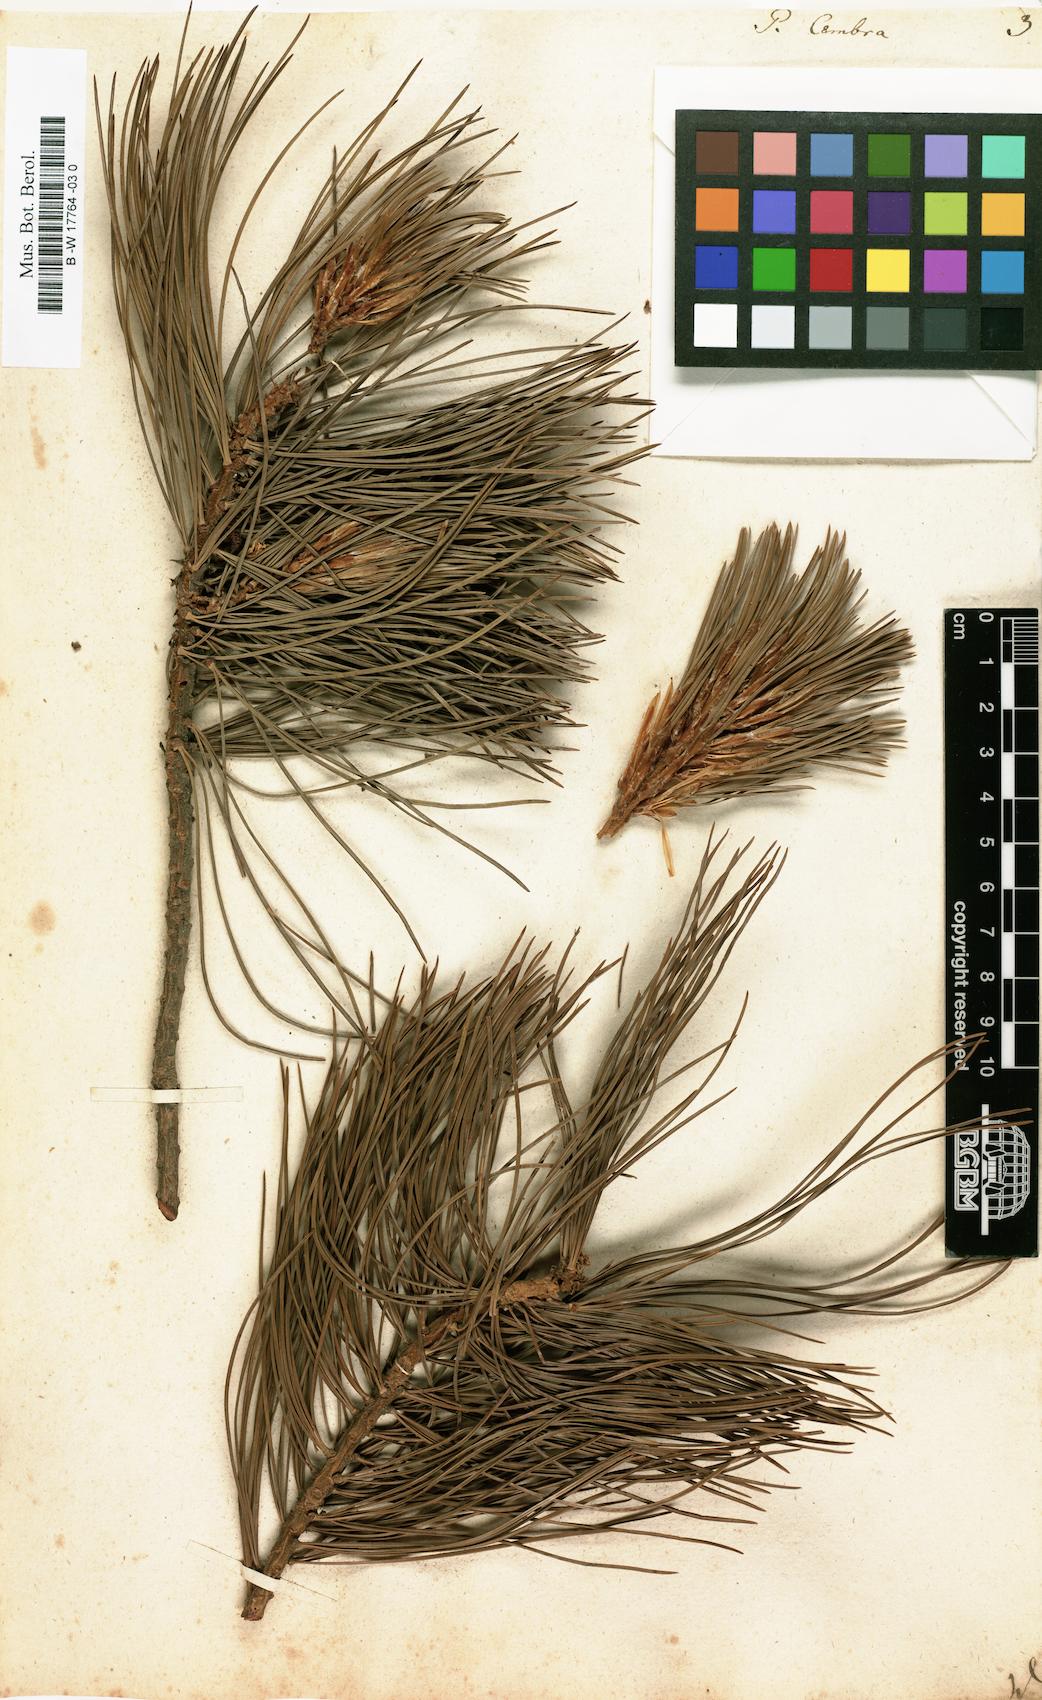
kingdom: Plantae
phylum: Tracheophyta
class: Pinopsida
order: Pinales
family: Pinaceae
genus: Pinus
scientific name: Pinus cembra
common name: Arolla pine
